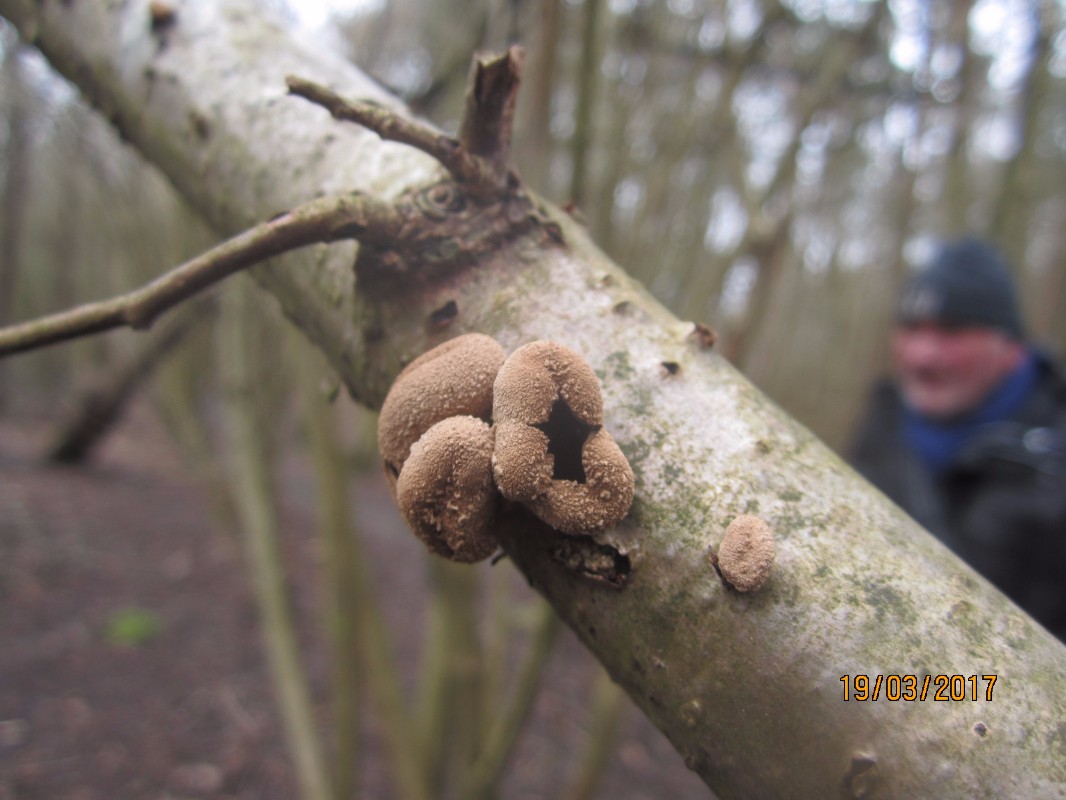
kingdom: Fungi
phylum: Ascomycota
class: Leotiomycetes
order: Helotiales
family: Cenangiaceae
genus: Encoelia
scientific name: Encoelia furfuracea
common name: hassel-læderskive
